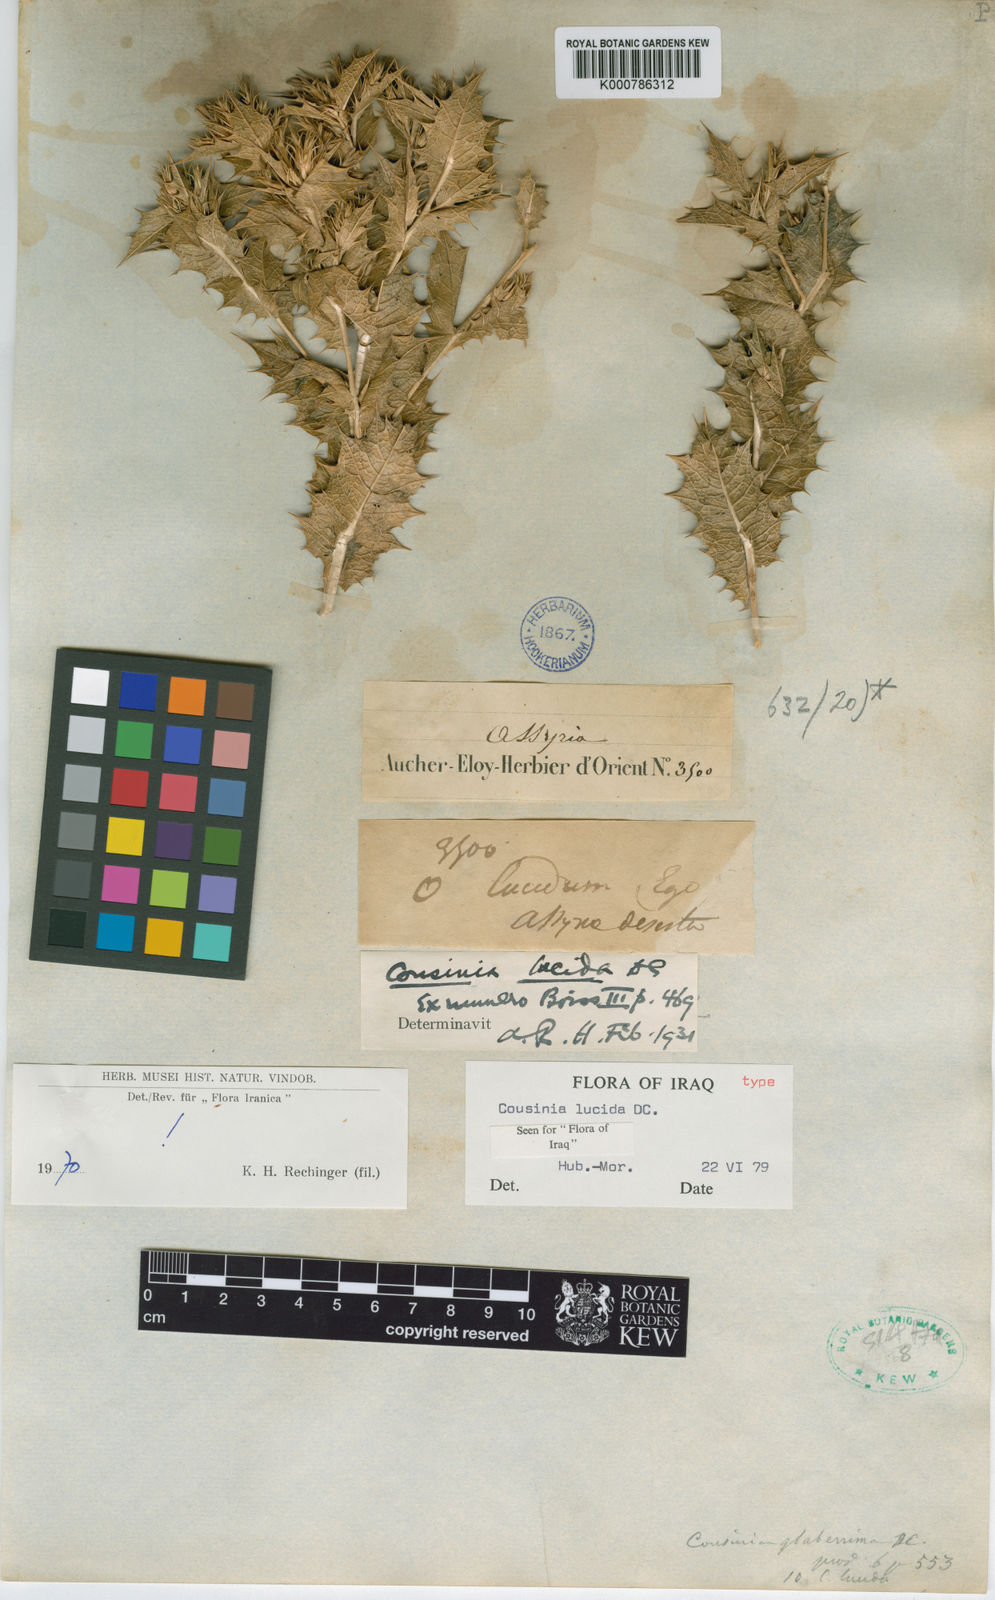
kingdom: Plantae
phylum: Tracheophyta
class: Magnoliopsida
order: Asterales
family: Asteraceae
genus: Cousinia
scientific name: Cousinia lucida
